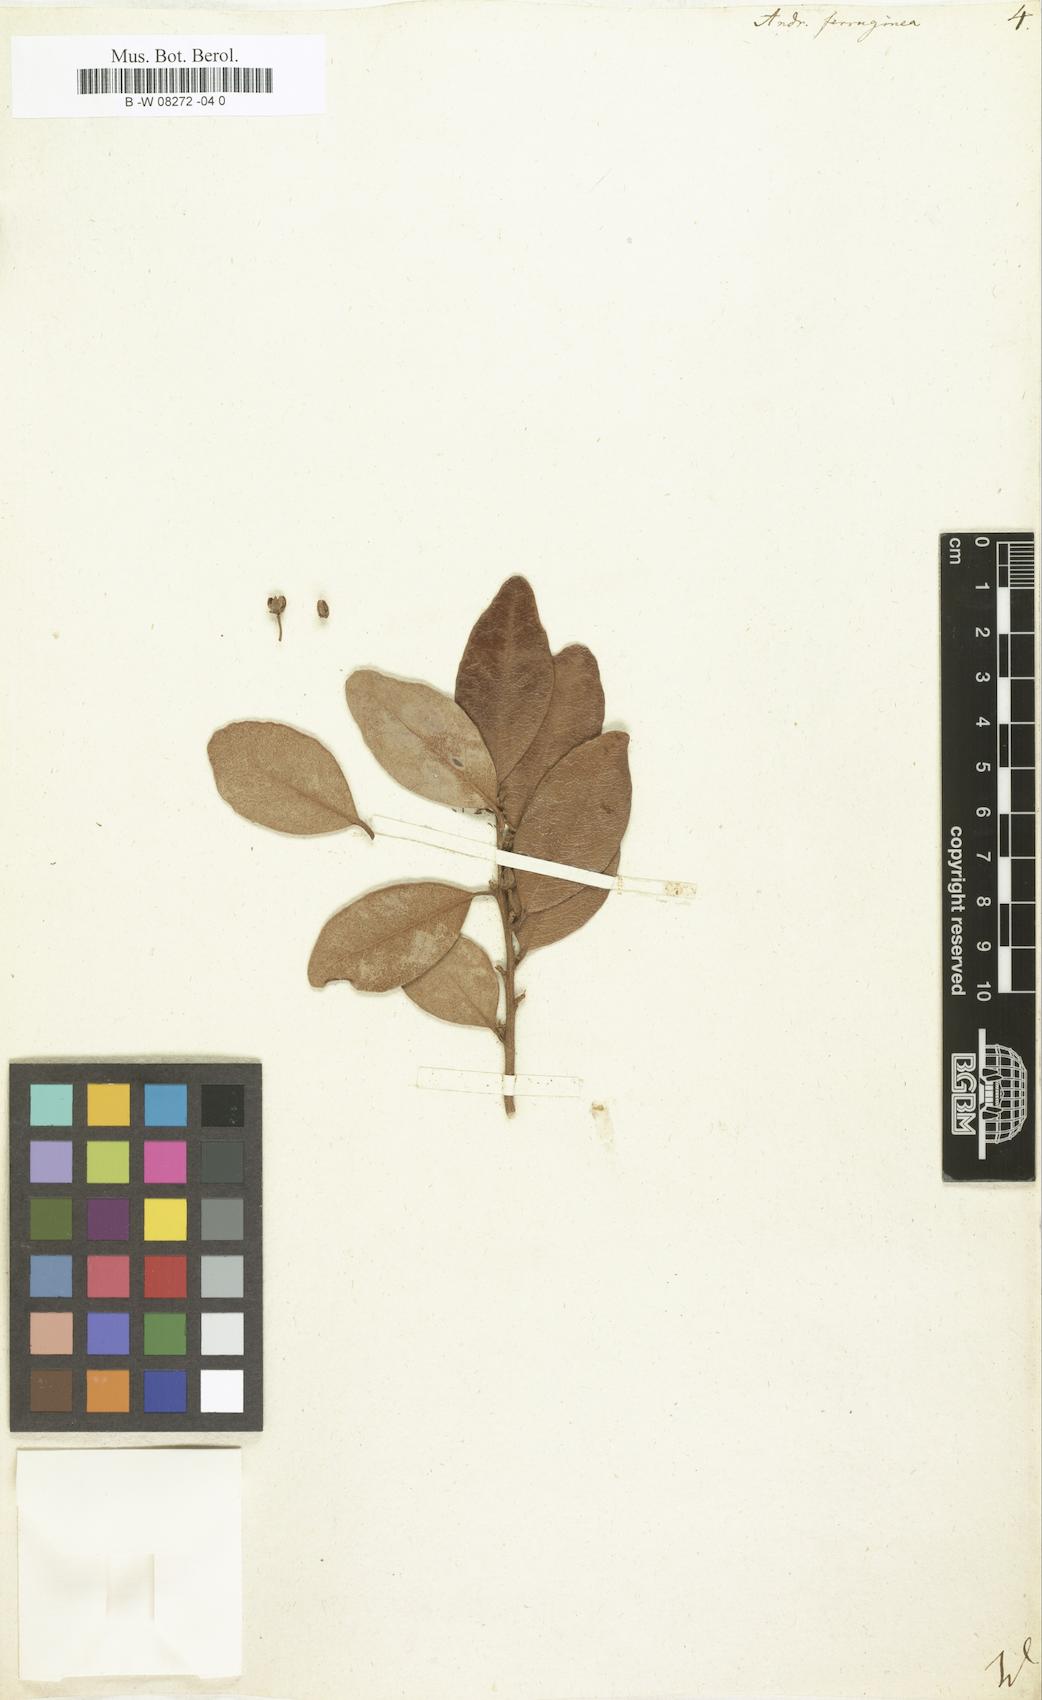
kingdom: Plantae
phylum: Tracheophyta
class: Magnoliopsida
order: Ericales
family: Ericaceae
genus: Lyonia
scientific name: Lyonia ferruginea
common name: Rusty lyonia
